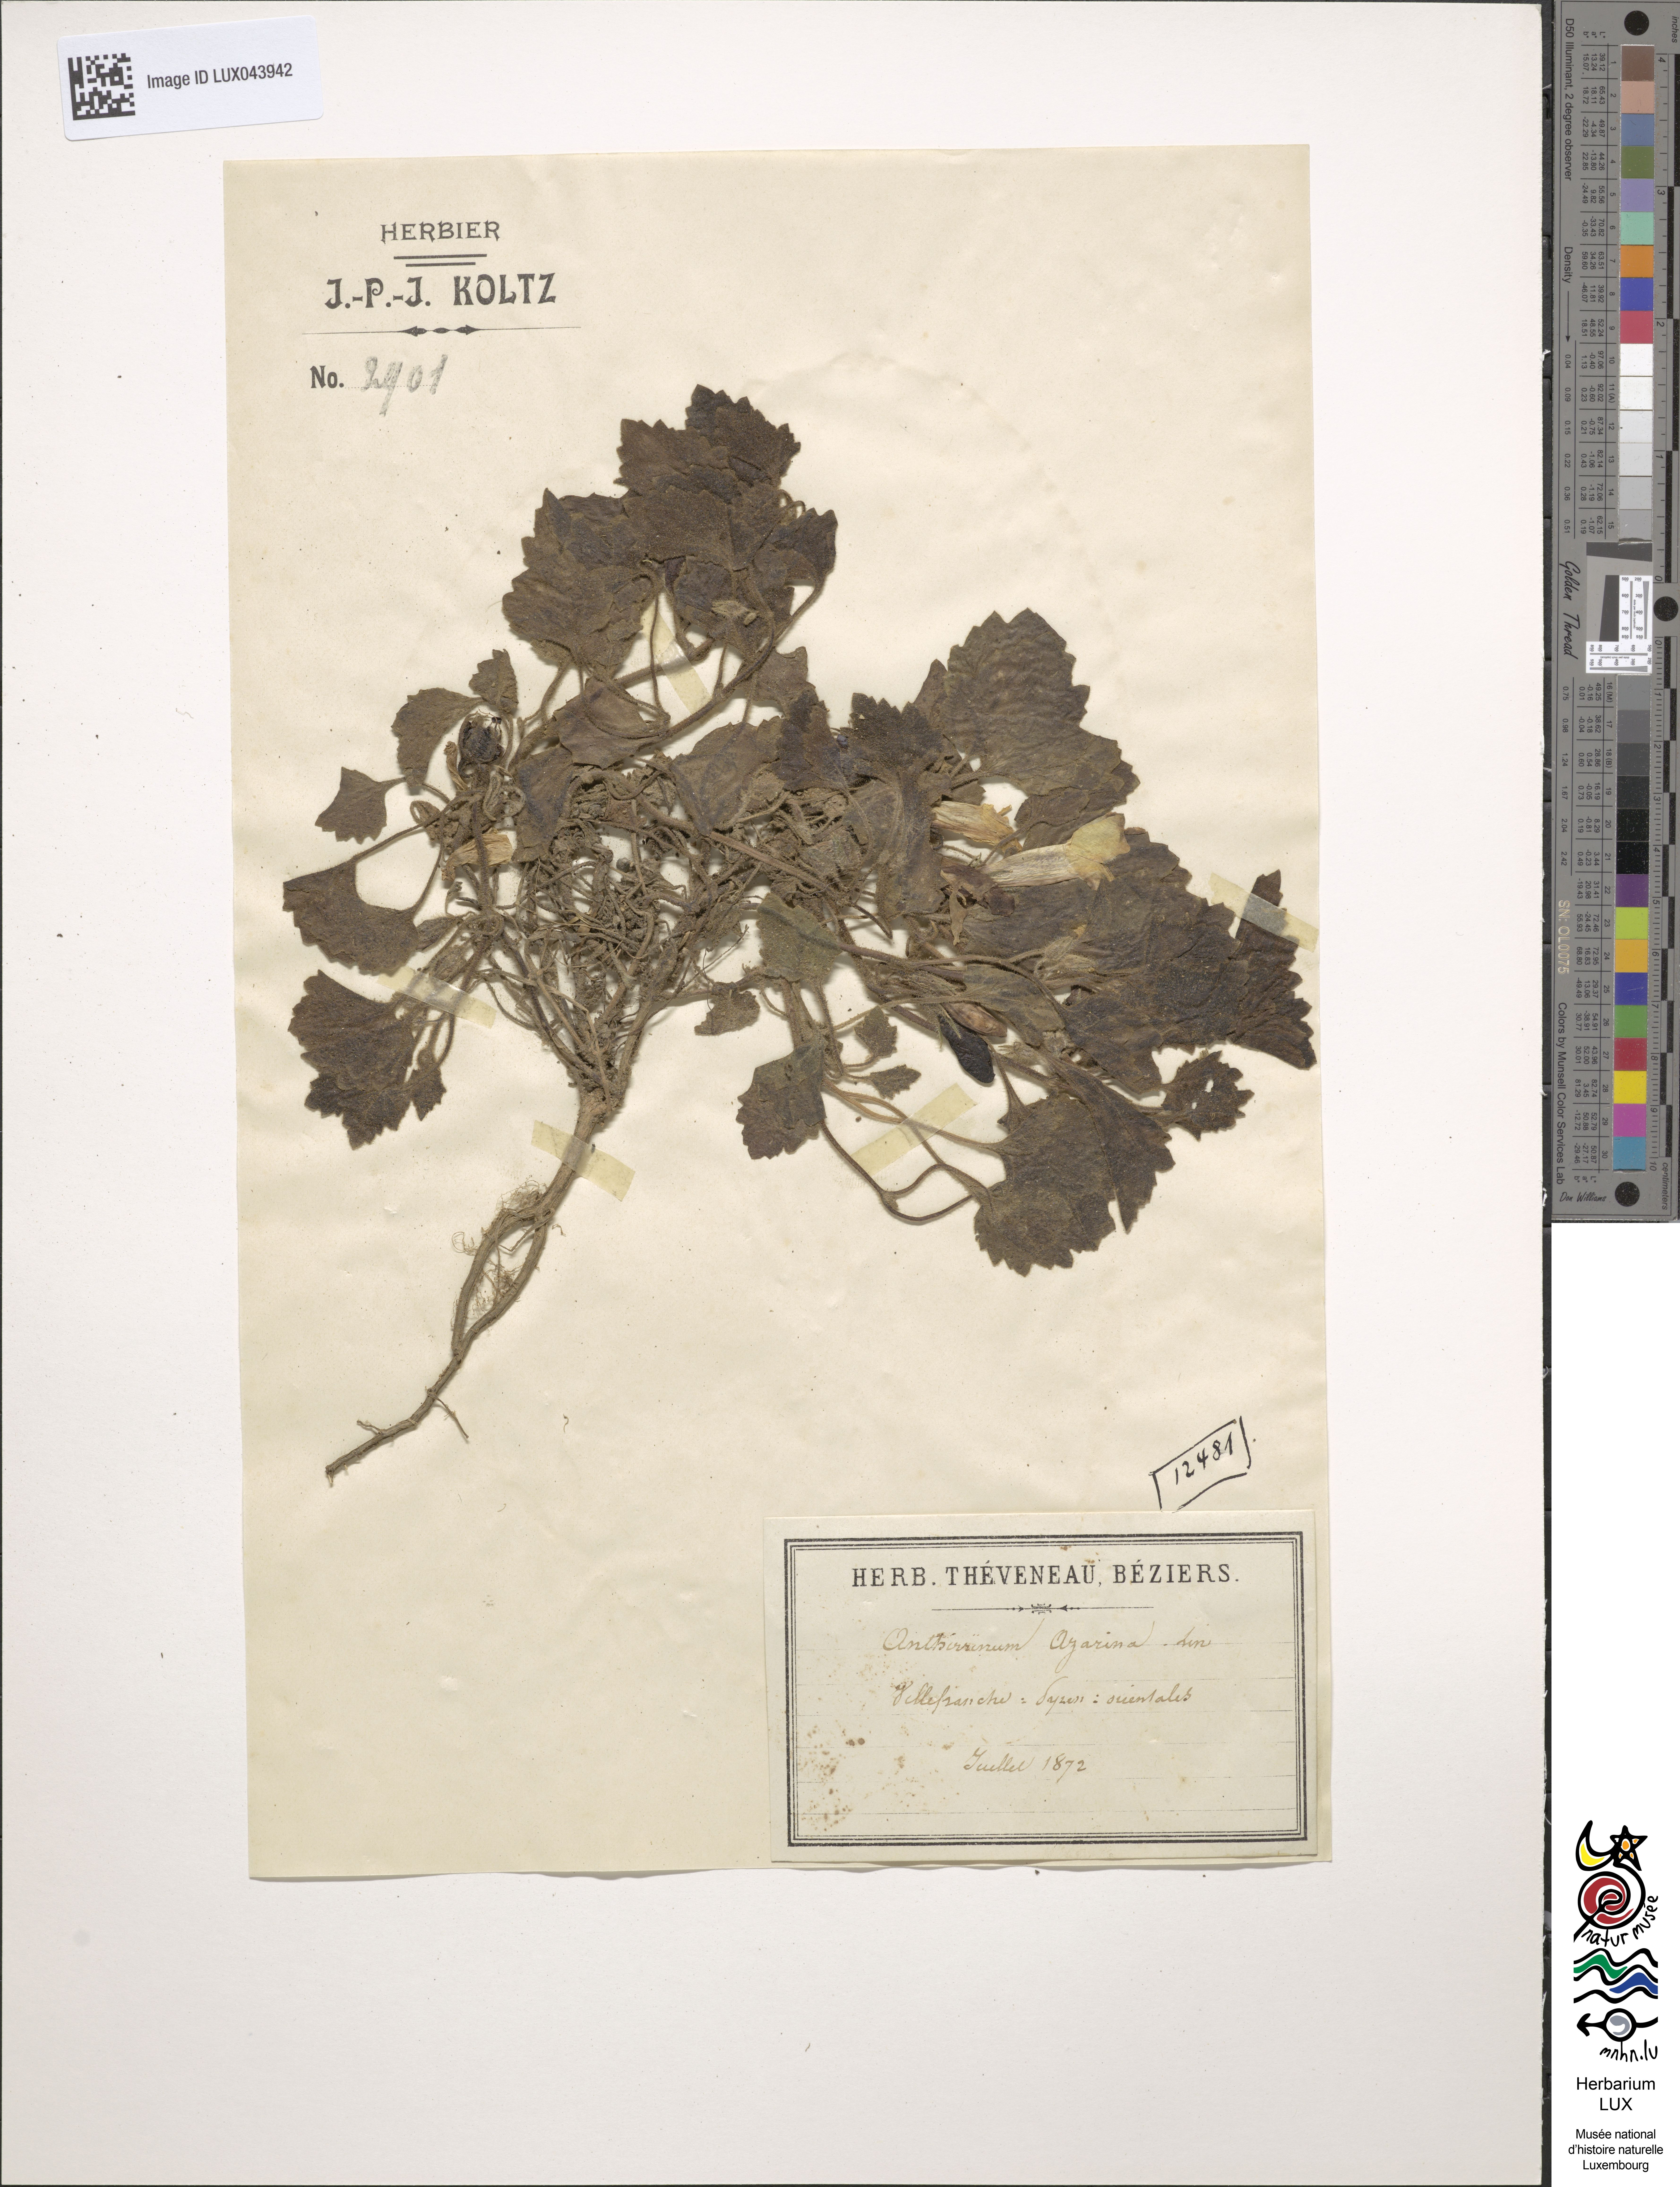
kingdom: Plantae
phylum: Tracheophyta
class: Magnoliopsida
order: Lamiales
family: Plantaginaceae
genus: Asarina
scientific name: Asarina procumbens
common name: Trailing snapdragon
